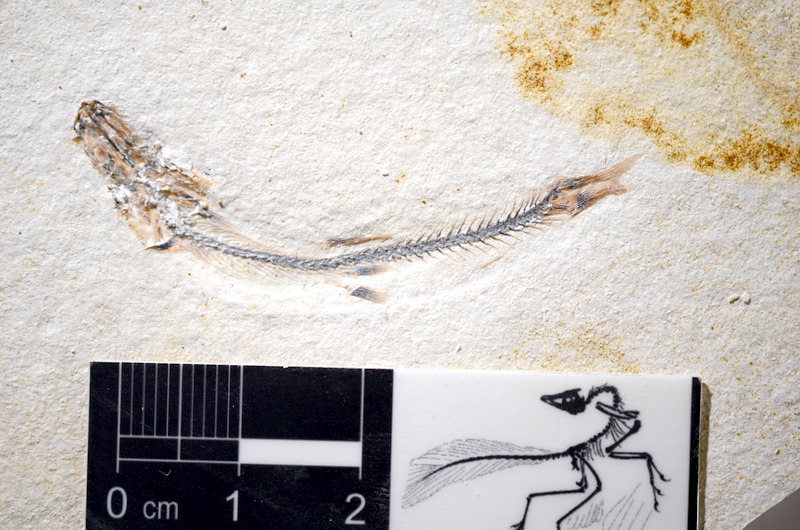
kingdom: Animalia
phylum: Chordata
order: Salmoniformes
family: Orthogonikleithridae
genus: Orthogonikleithrus
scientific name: Orthogonikleithrus hoelli
